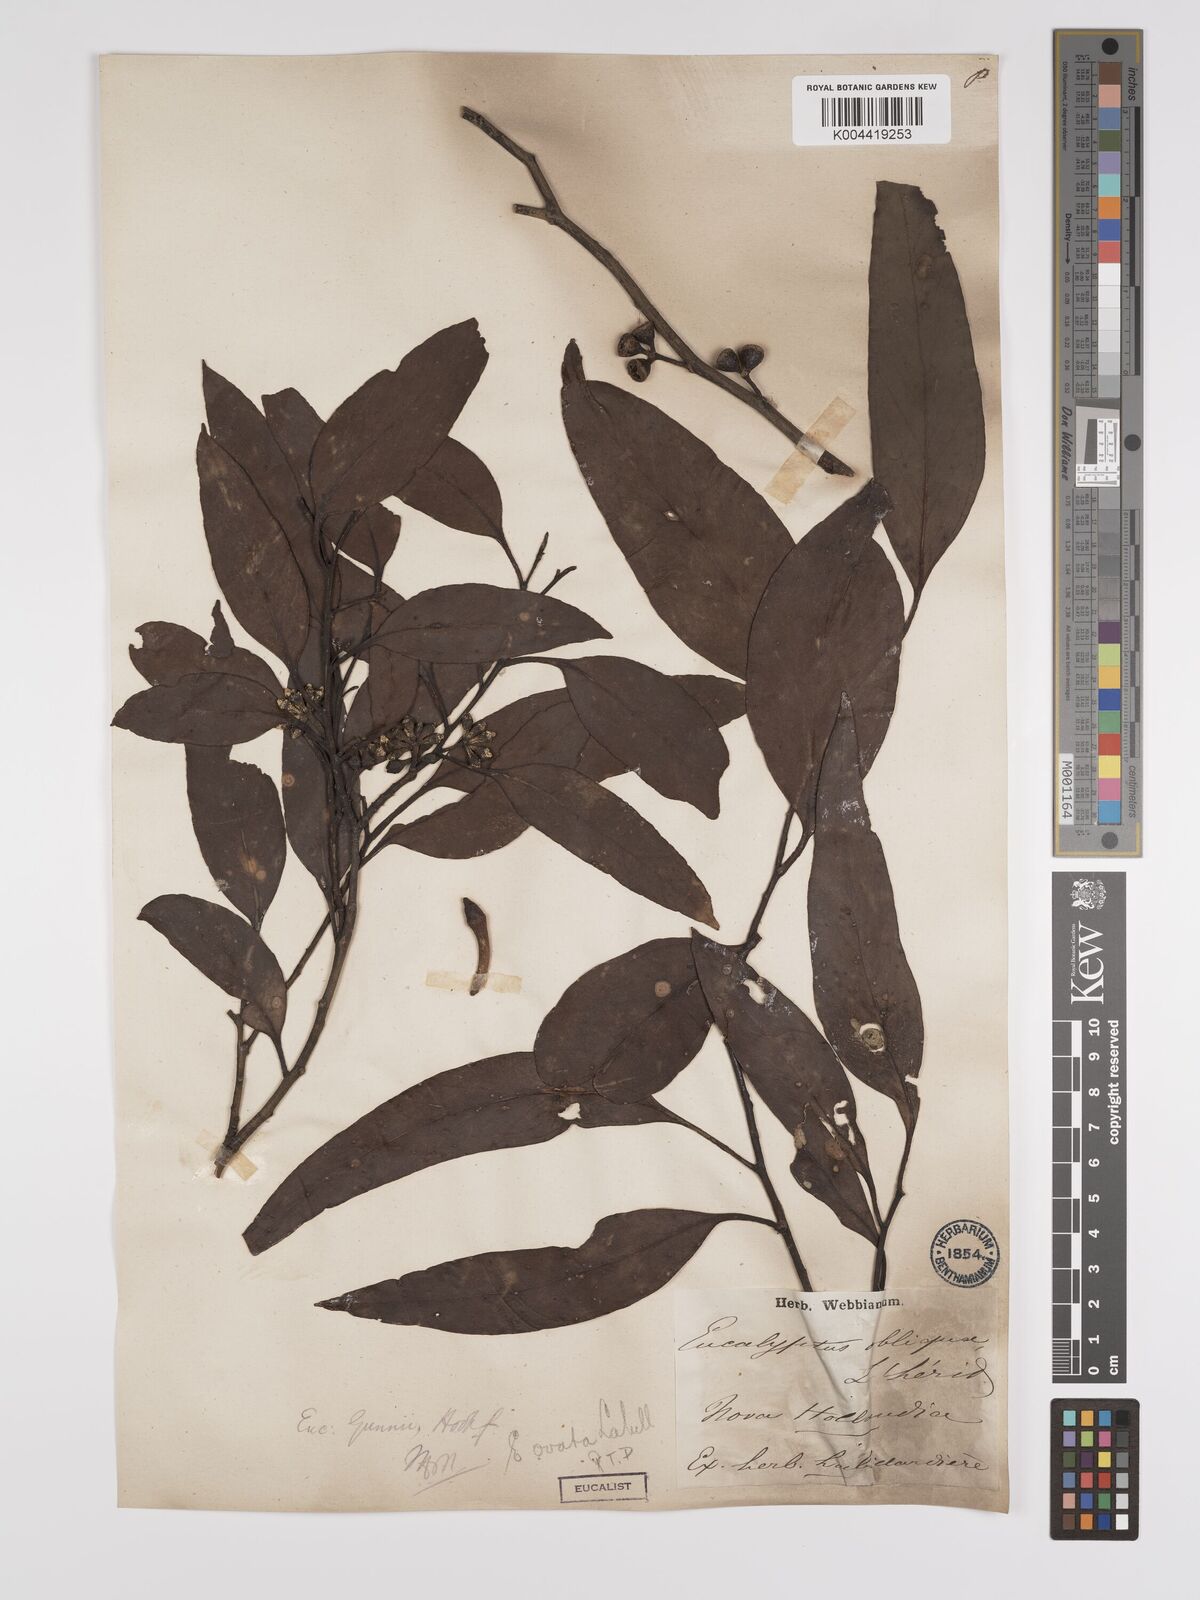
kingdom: Plantae
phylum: Tracheophyta
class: Magnoliopsida
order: Myrtales
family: Myrtaceae
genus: Eucalyptus
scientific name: Eucalyptus ovata
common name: Black-gum
